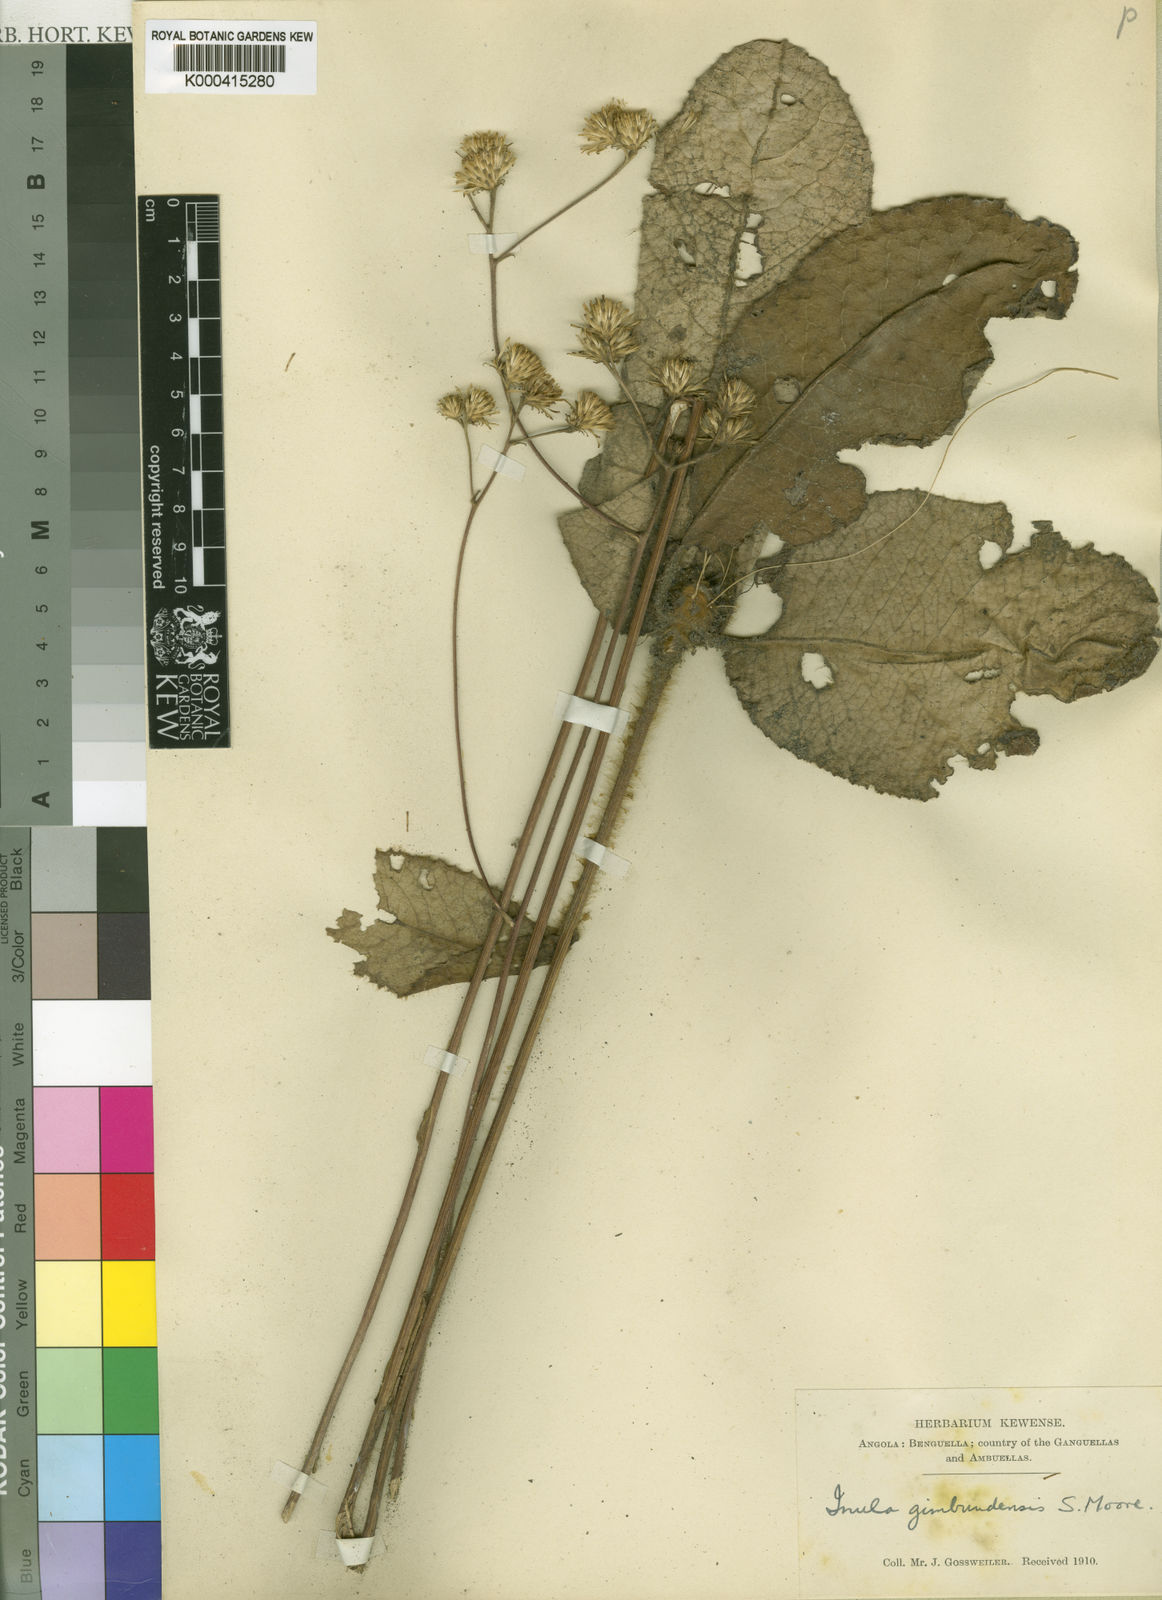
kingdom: Plantae
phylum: Tracheophyta
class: Magnoliopsida
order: Asterales
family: Asteraceae
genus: Inula
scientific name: Inula gimbundensis
